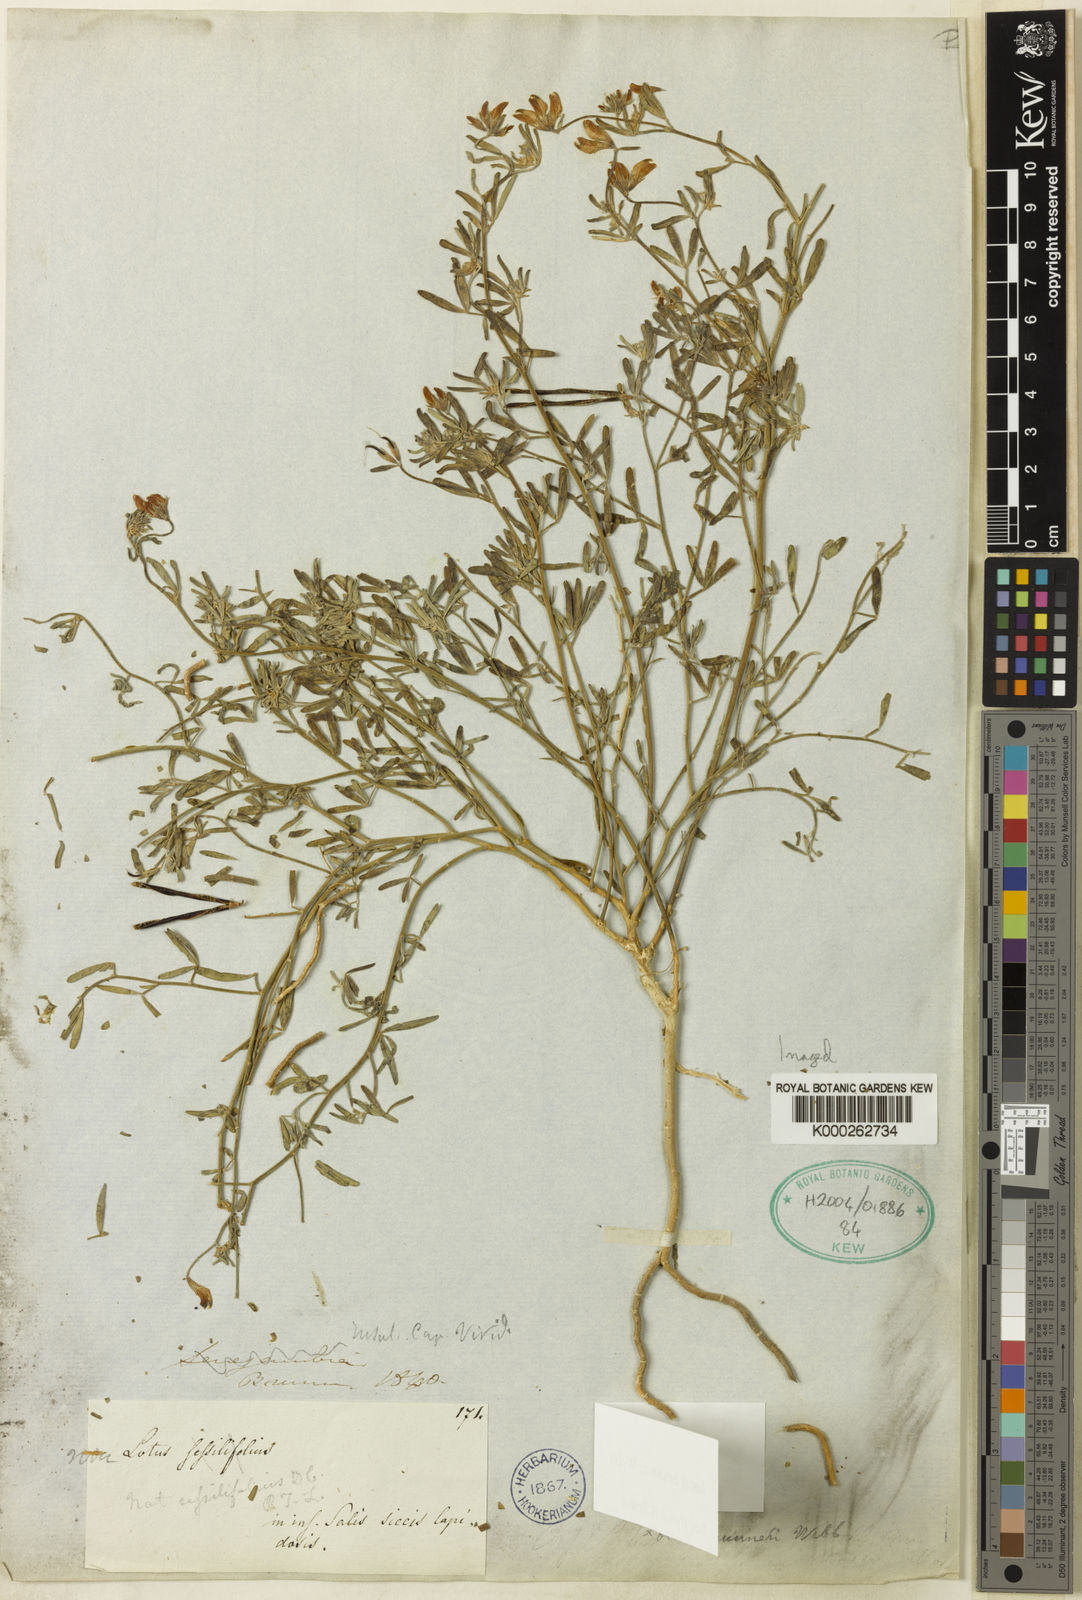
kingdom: Plantae
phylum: Tracheophyta
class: Magnoliopsida
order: Fabales
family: Fabaceae
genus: Lotus
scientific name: Lotus brunneri
